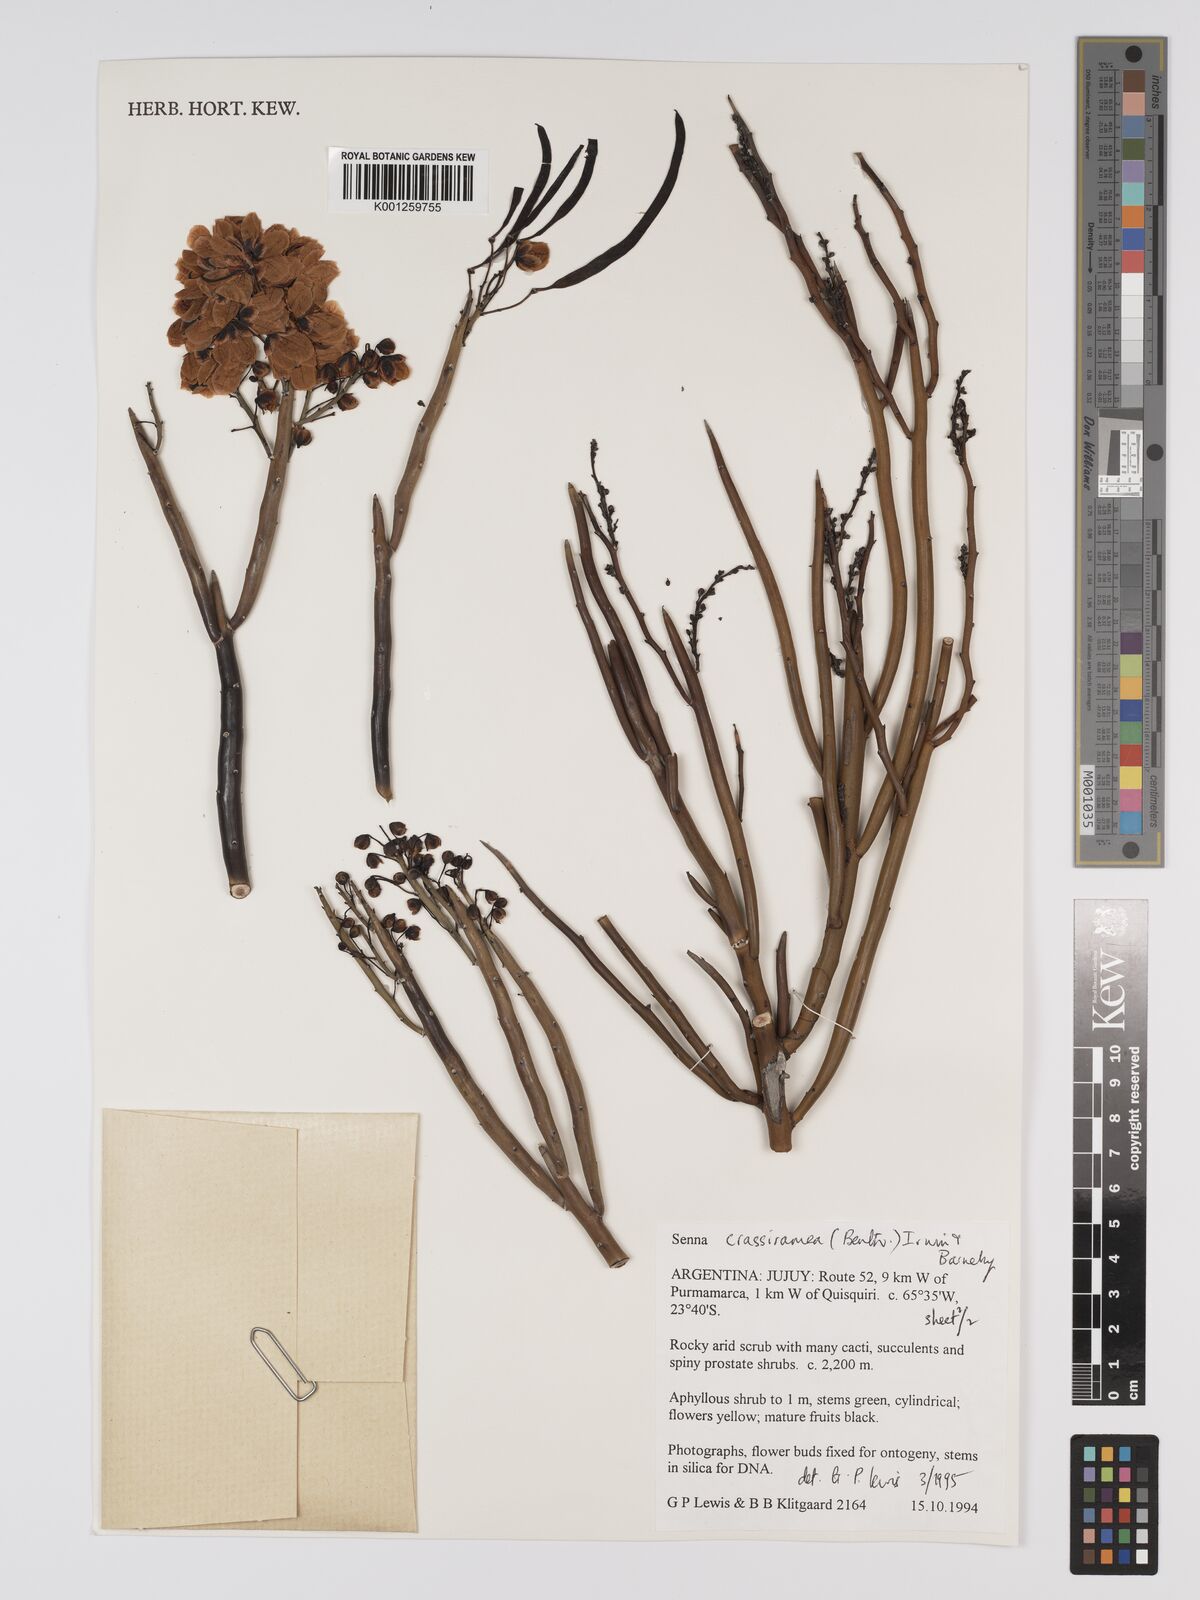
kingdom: Plantae
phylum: Tracheophyta
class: Magnoliopsida
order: Fabales
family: Fabaceae
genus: Senna
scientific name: Senna crassiramea
